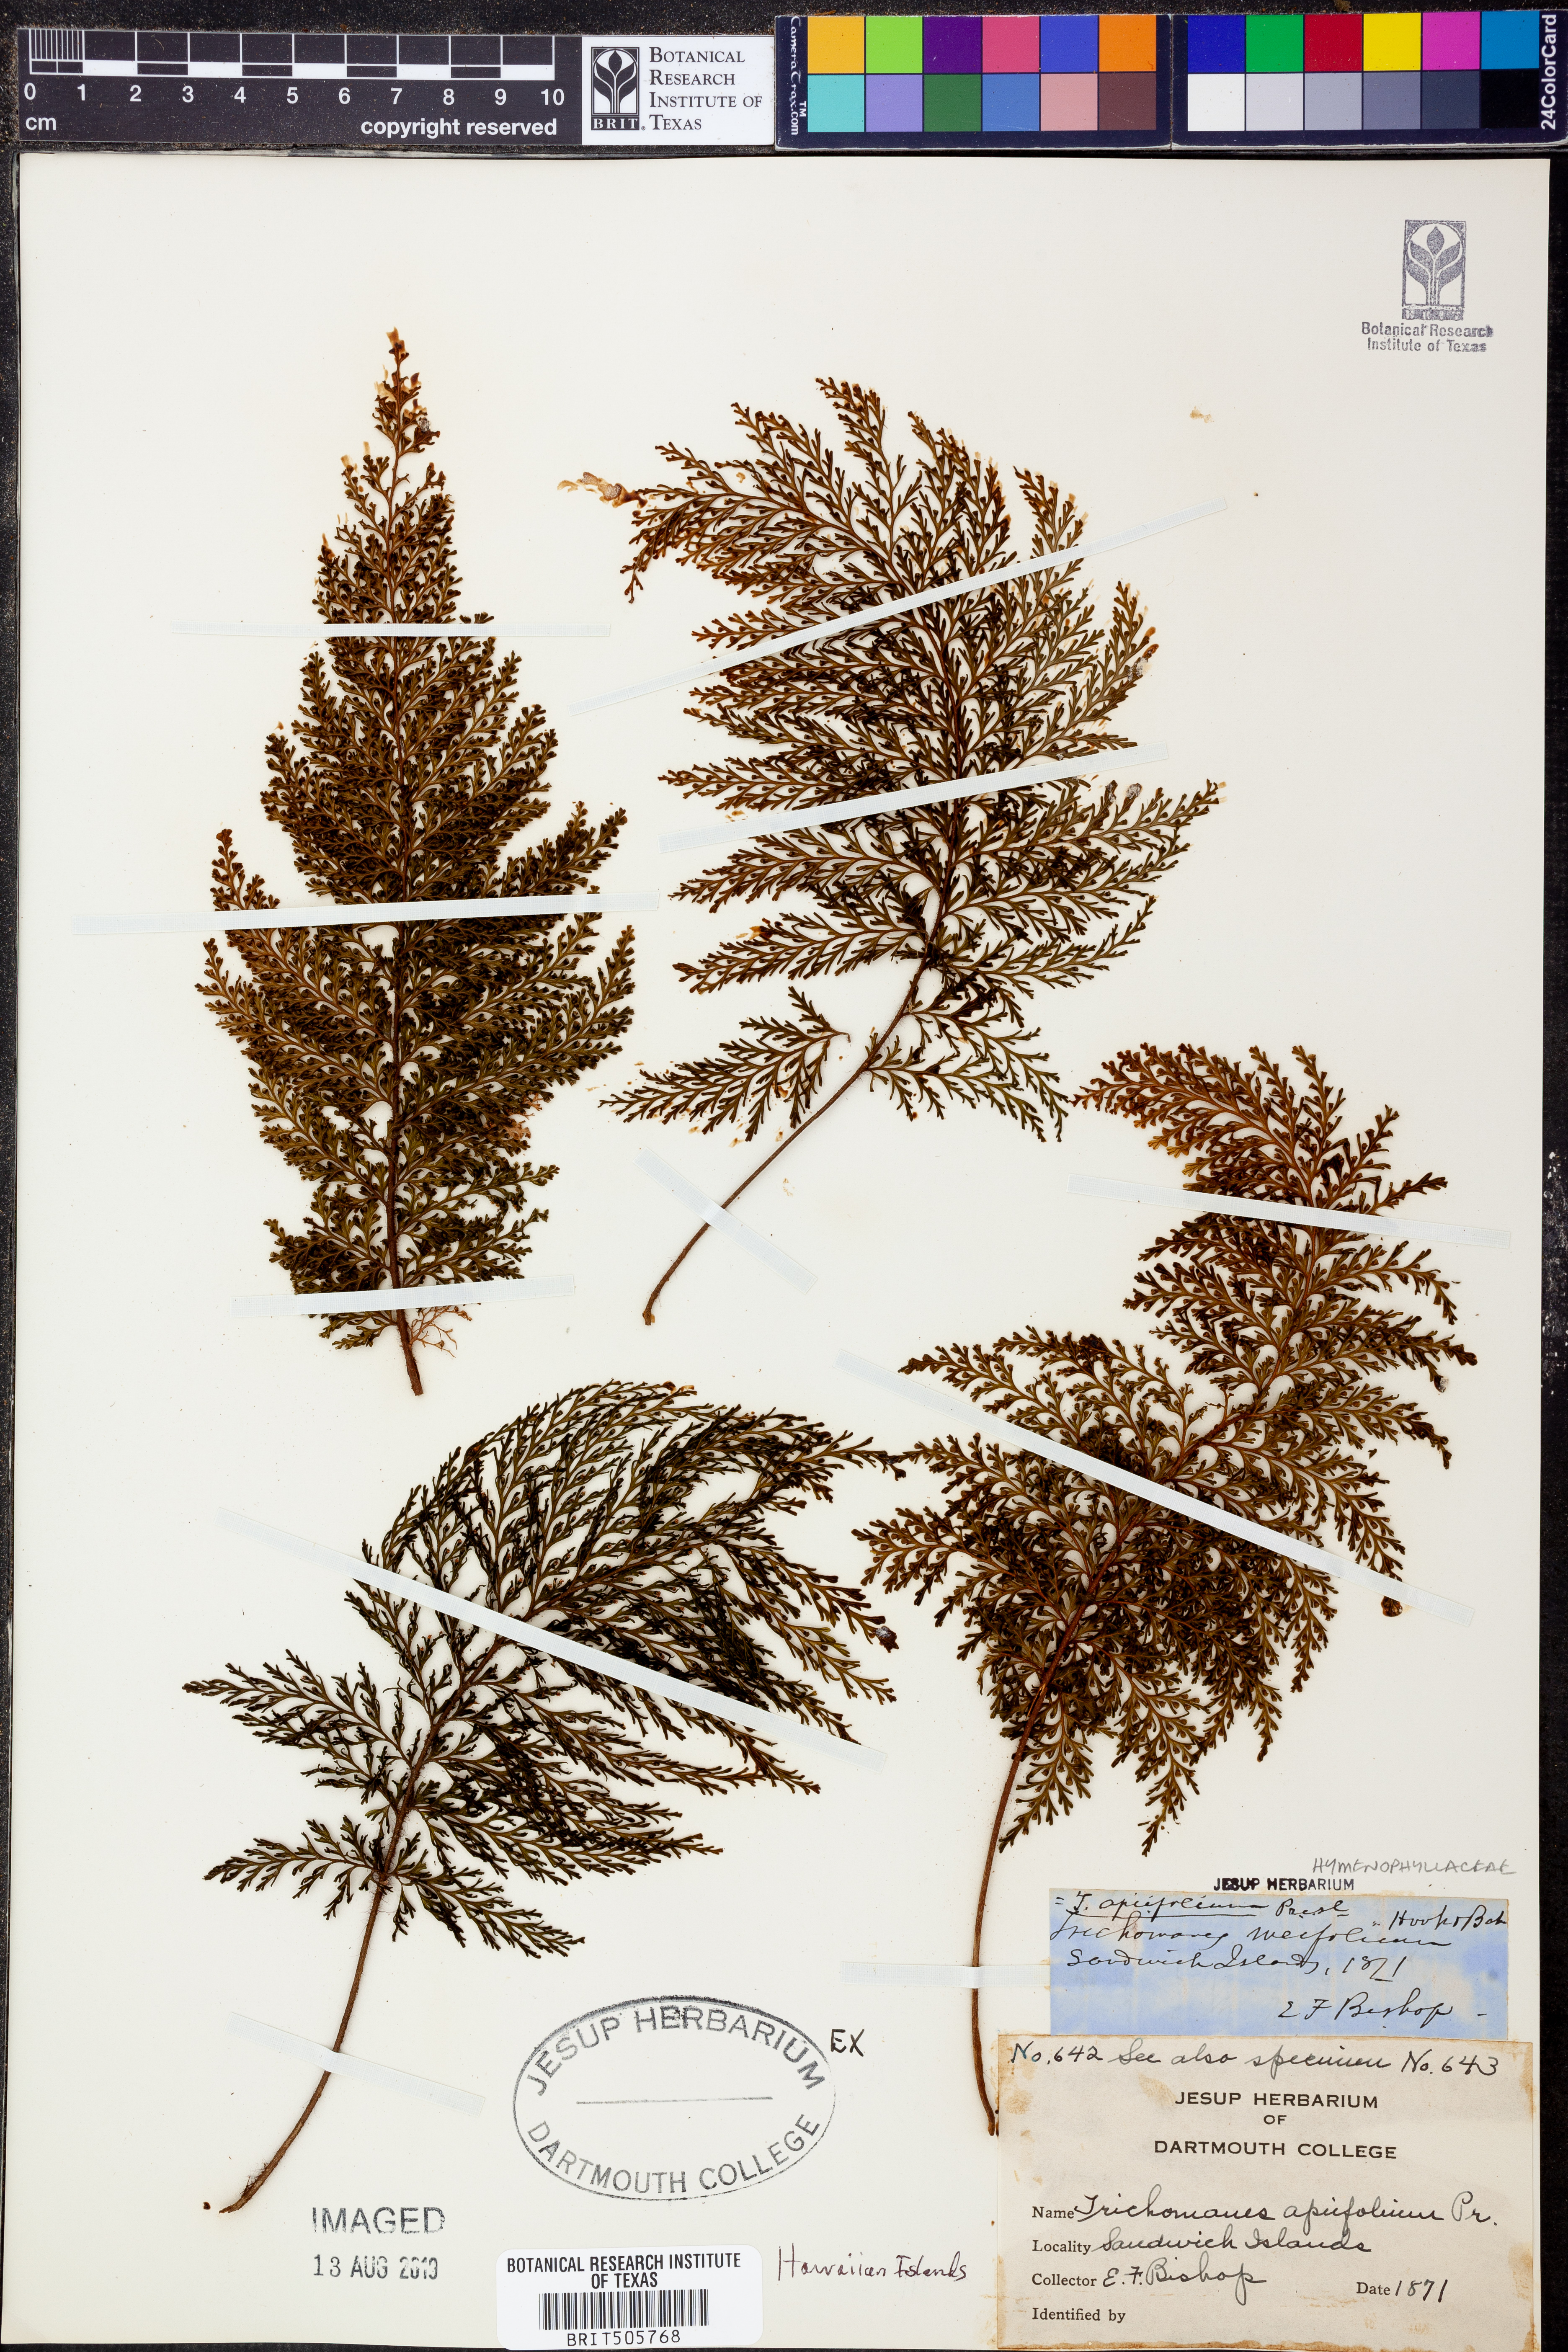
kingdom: Plantae
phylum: Tracheophyta
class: Polypodiopsida
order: Hymenophyllales
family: Hymenophyllaceae
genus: Callistopteris
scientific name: Callistopteris apiifolia
